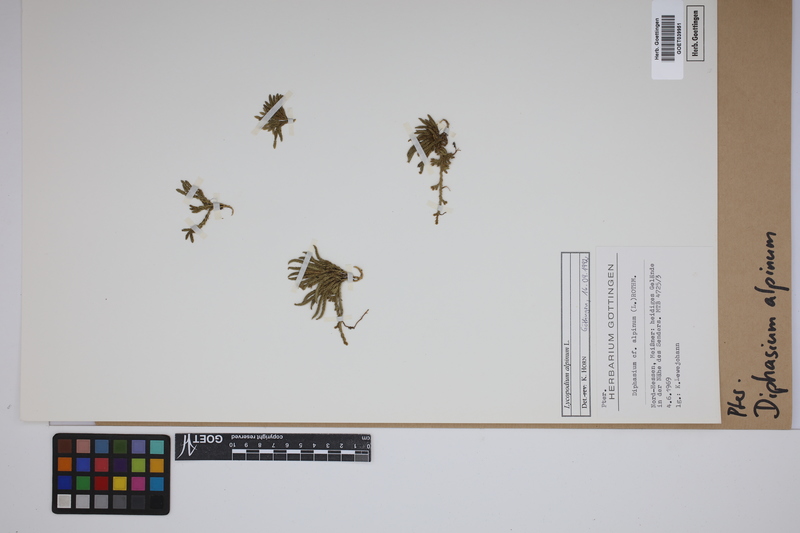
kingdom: Plantae
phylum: Tracheophyta
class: Lycopodiopsida
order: Lycopodiales
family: Lycopodiaceae
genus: Diphasiastrum
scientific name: Diphasiastrum alpinum
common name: Alpine clubmoss
